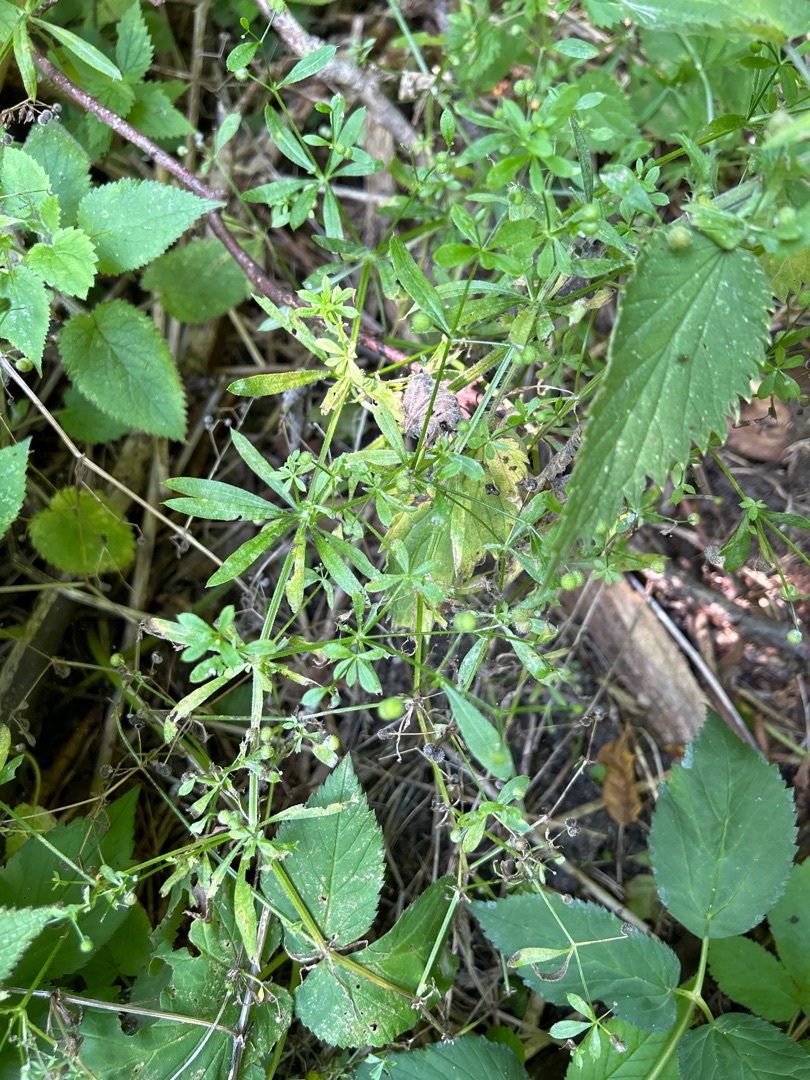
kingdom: Plantae
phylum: Tracheophyta
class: Magnoliopsida
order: Gentianales
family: Rubiaceae
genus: Galium
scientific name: Galium aparine
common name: Burre-snerre
